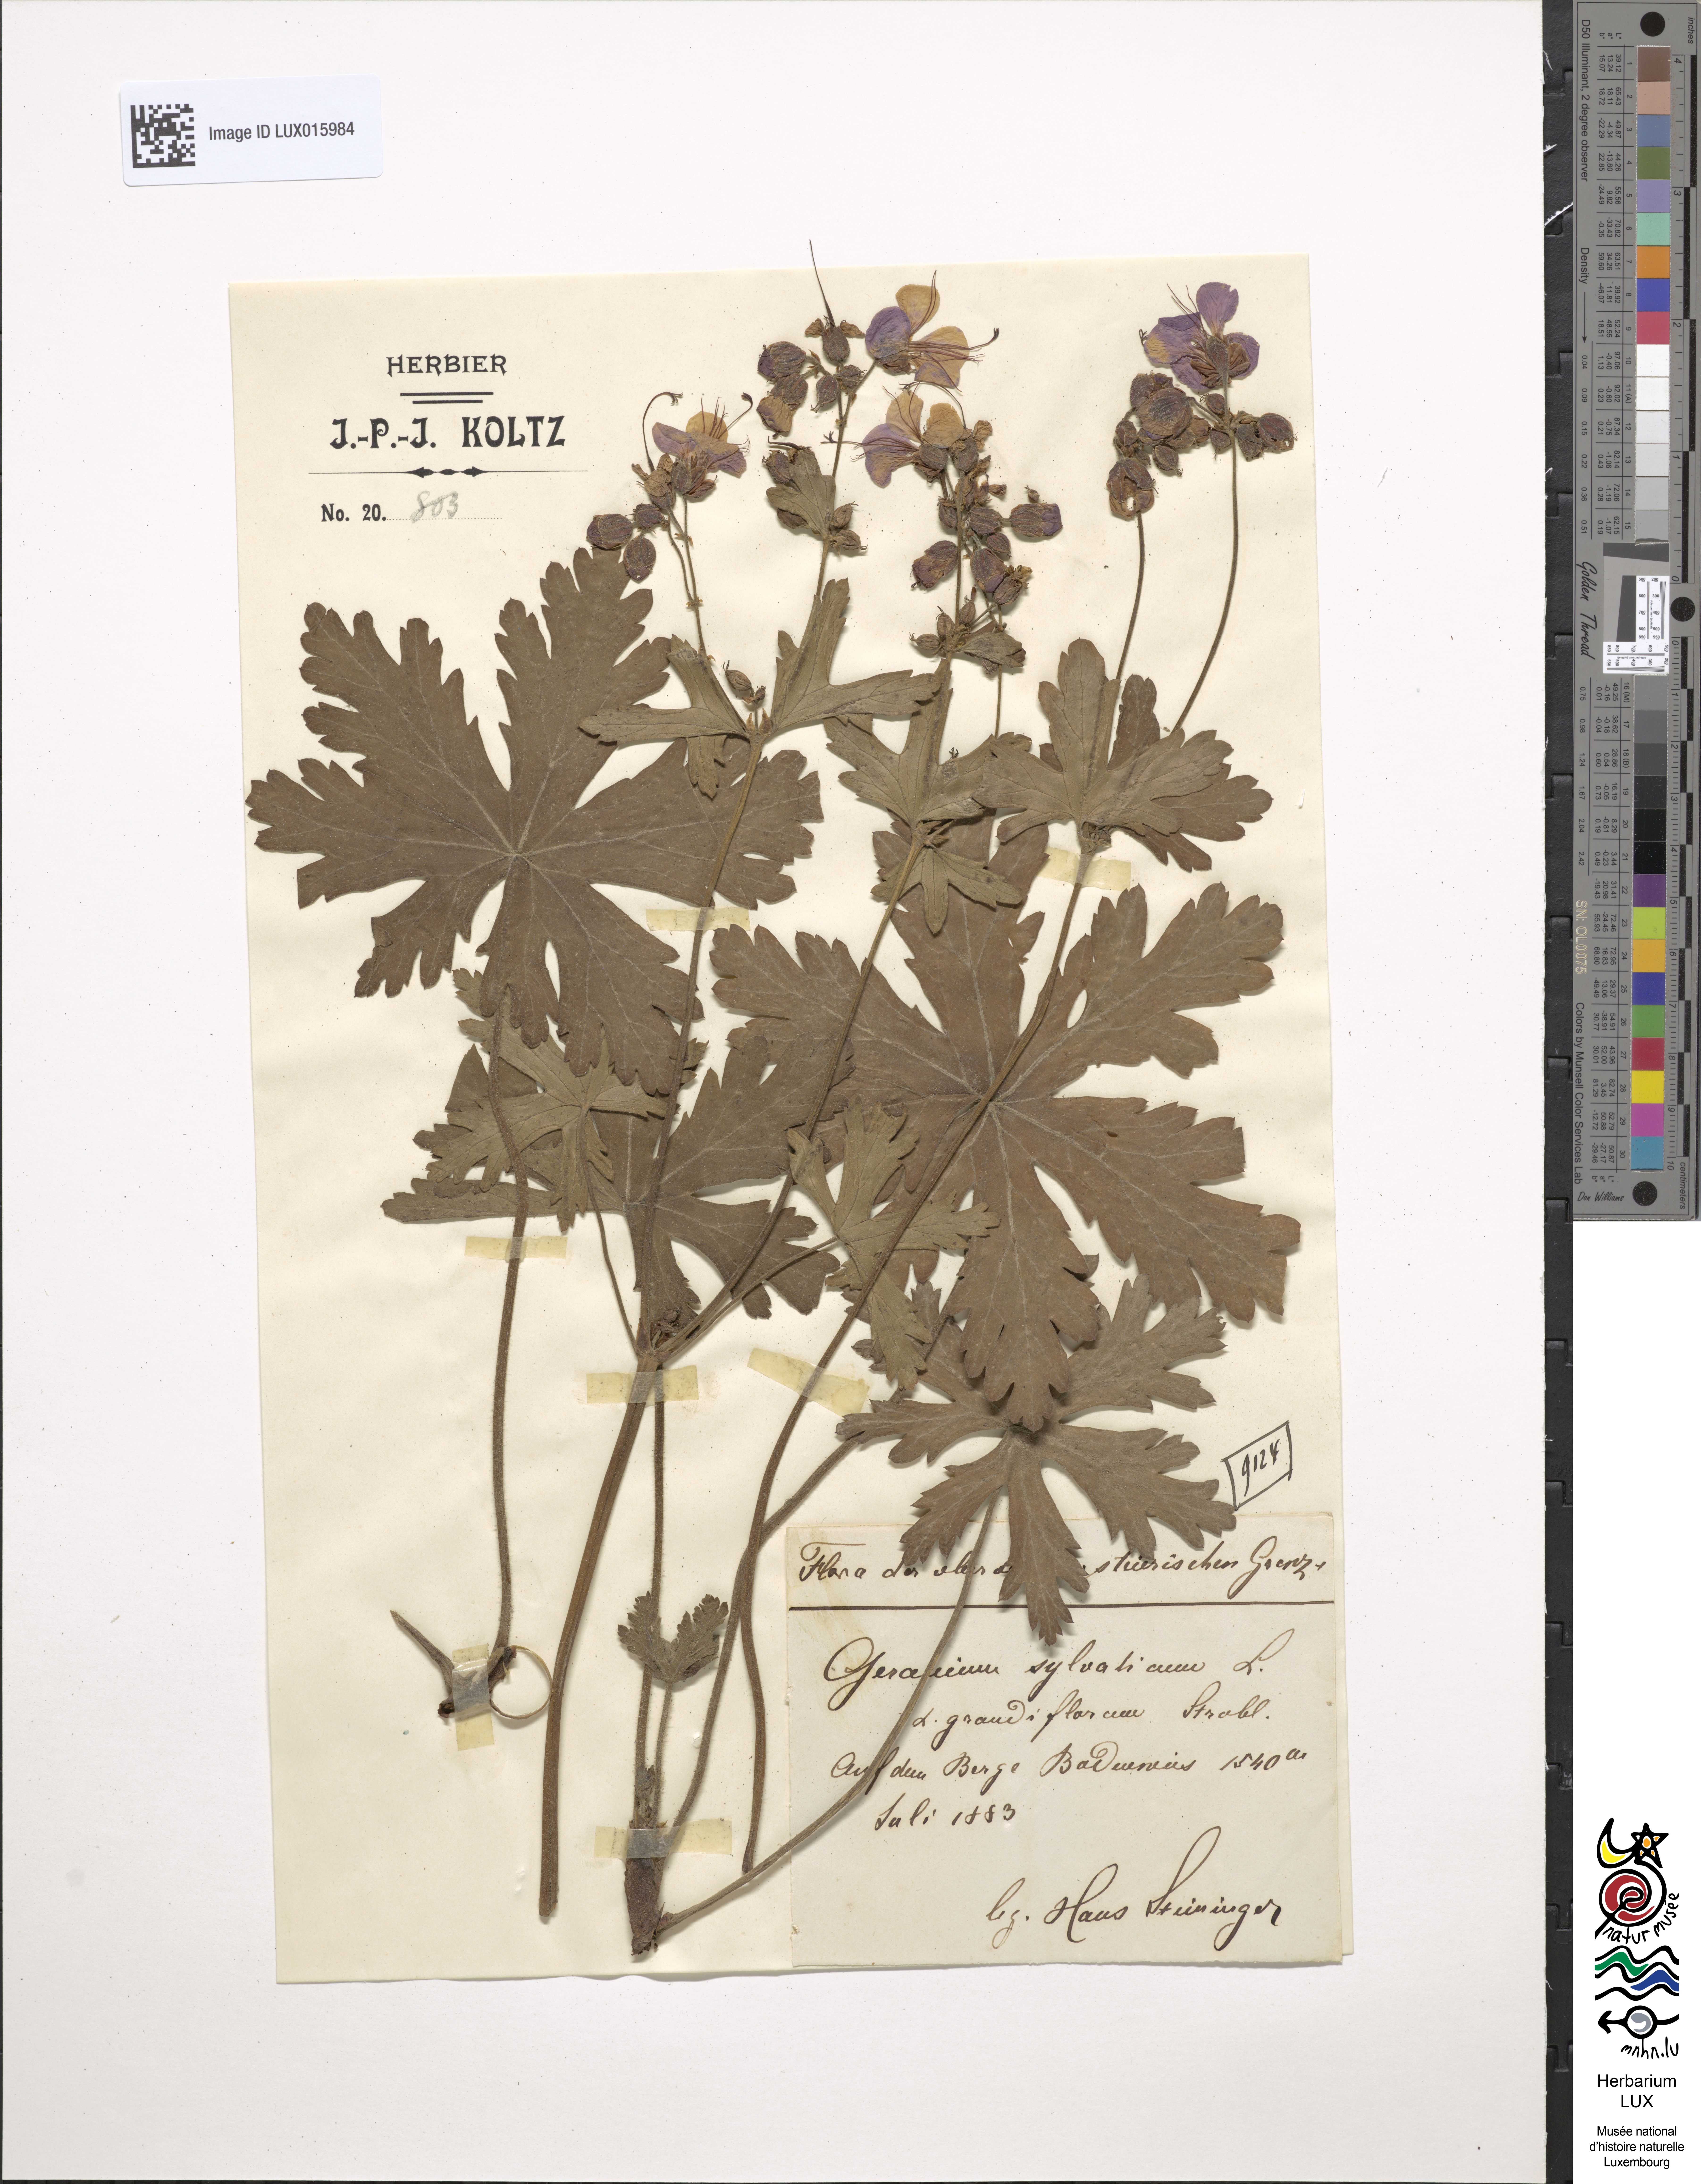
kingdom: Plantae
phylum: Tracheophyta
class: Magnoliopsida
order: Geraniales
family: Geraniaceae
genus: Geranium
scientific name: Geranium sylvaticum
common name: Wood crane's-bill
